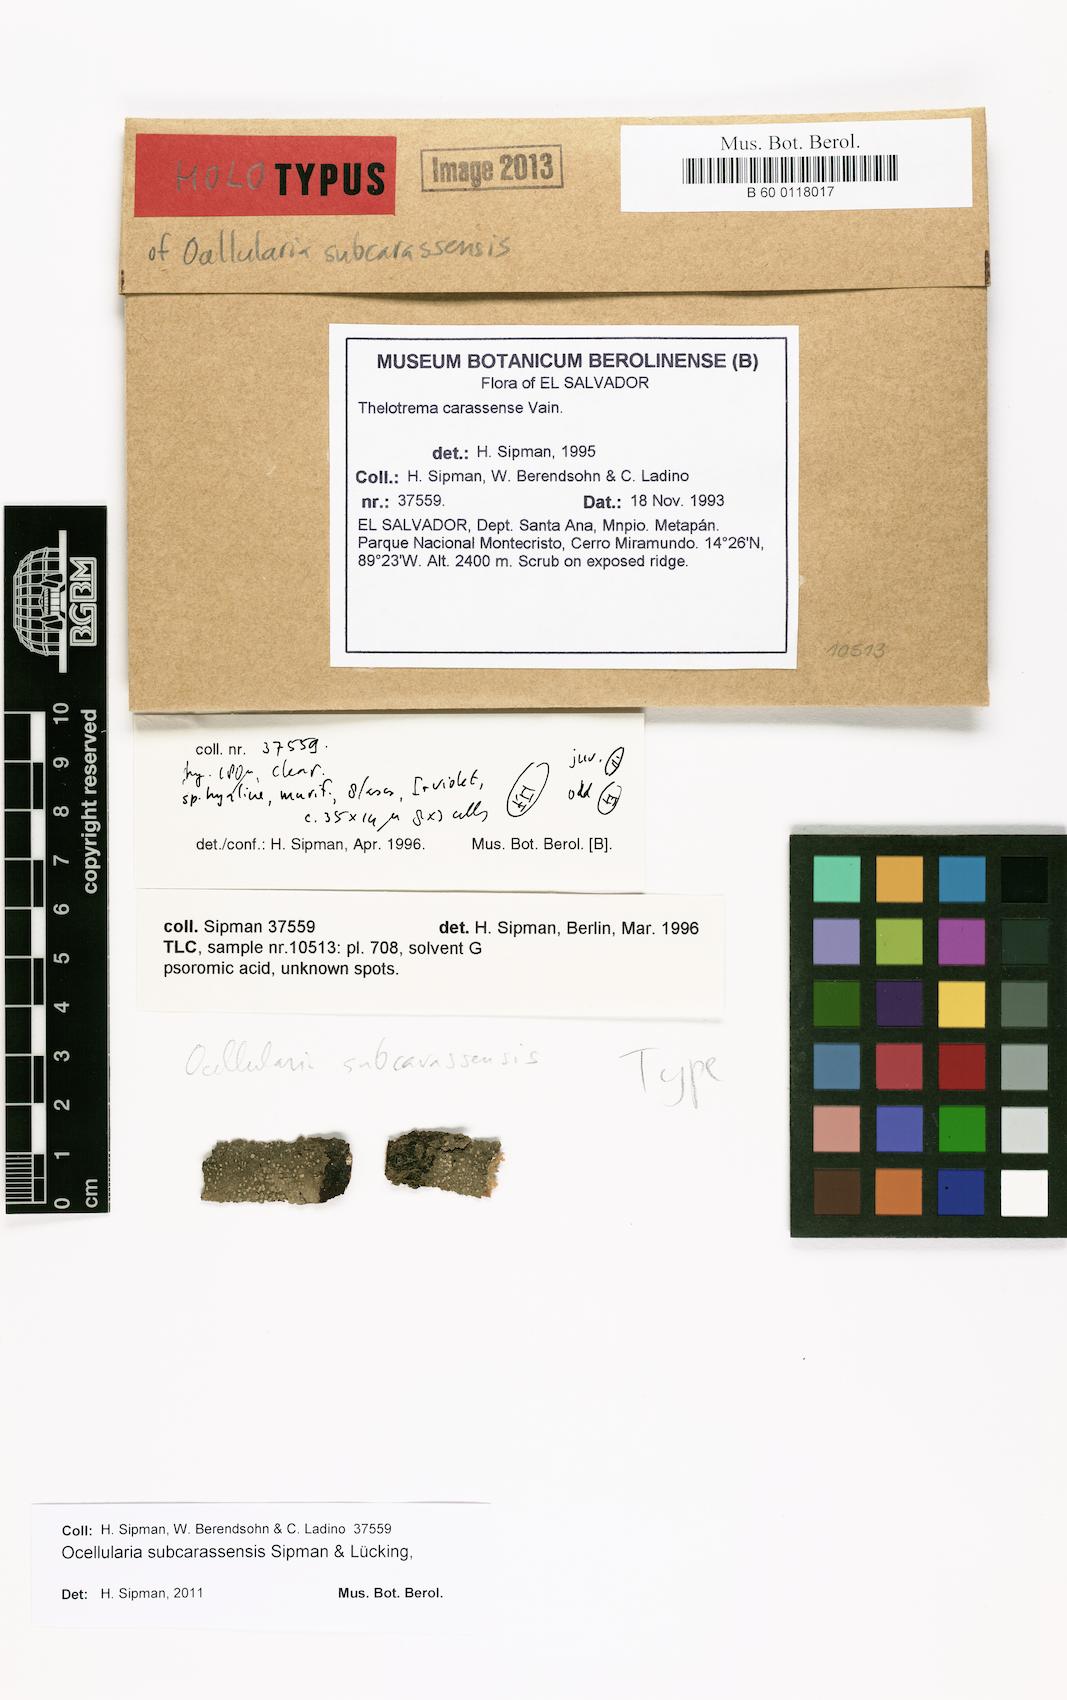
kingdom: Fungi
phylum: Ascomycota
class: Lecanoromycetes
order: Ostropales
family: Graphidaceae
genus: Ocellularia
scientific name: Ocellularia subcarassensis
